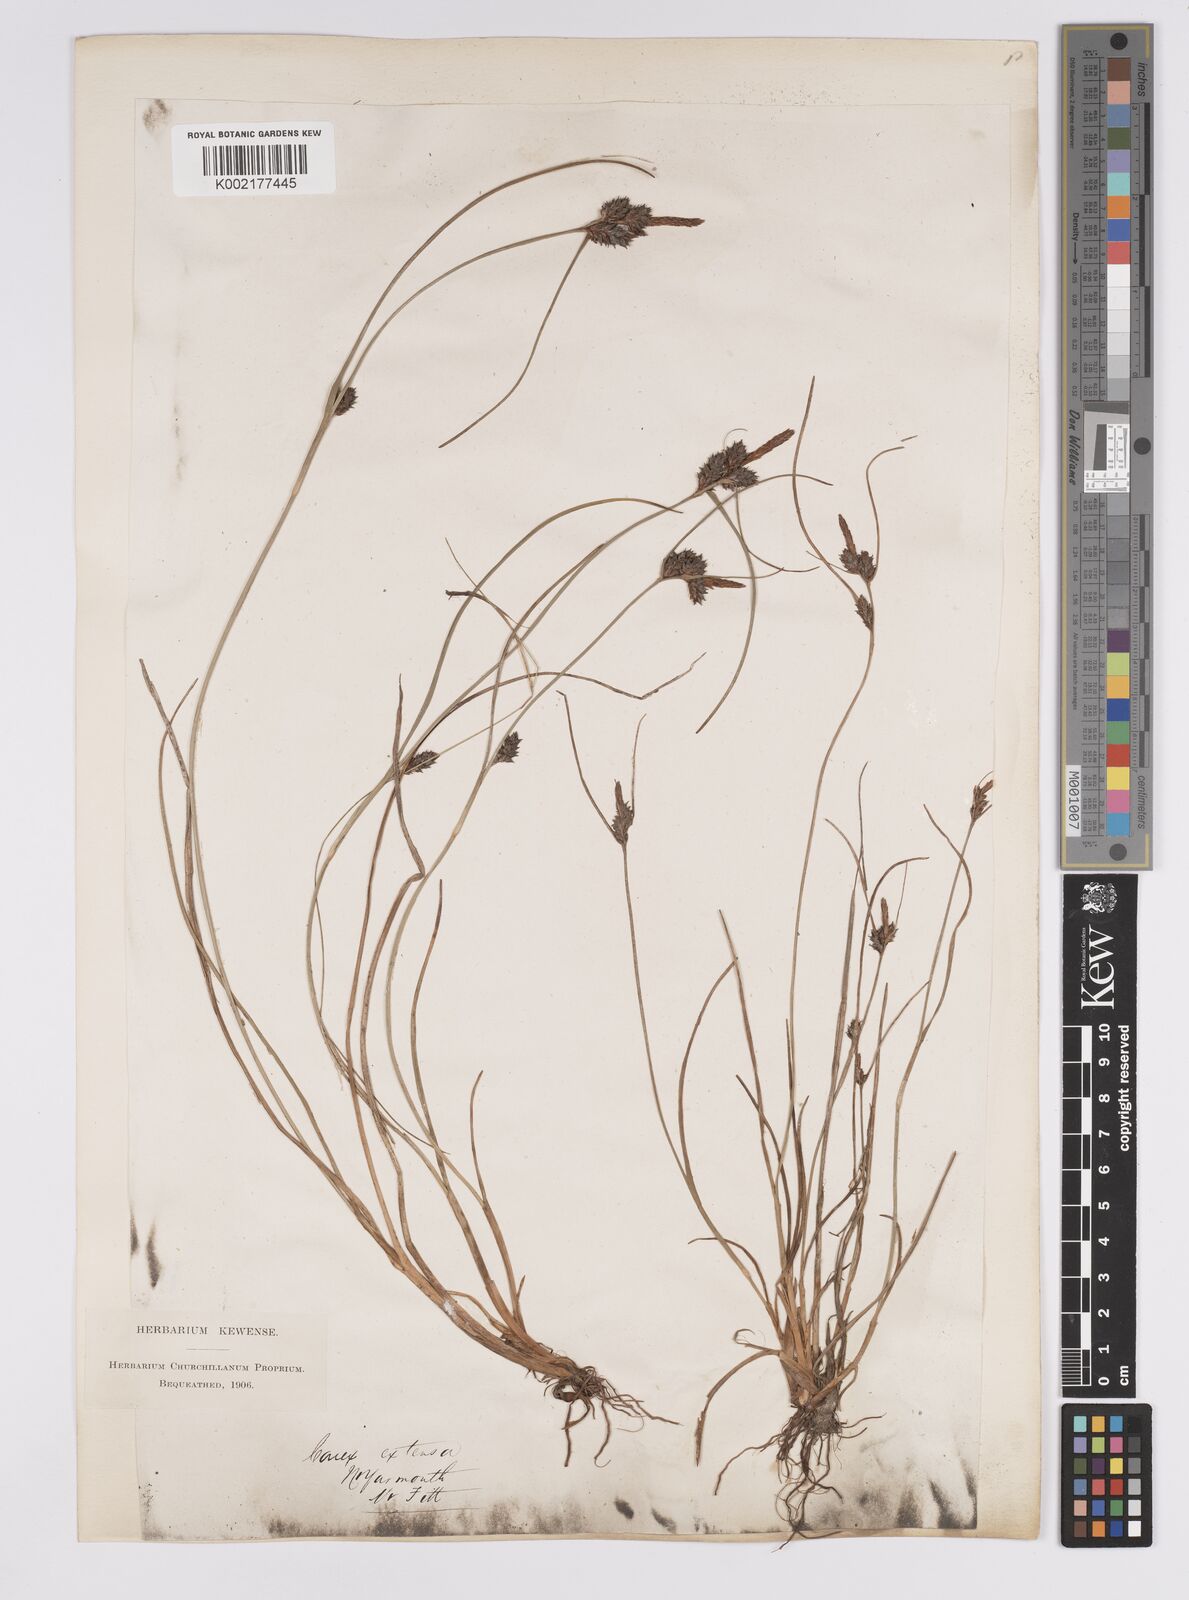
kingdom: Plantae
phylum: Tracheophyta
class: Liliopsida
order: Poales
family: Cyperaceae
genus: Carex
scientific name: Carex extensa
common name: Long-bracted sedge
